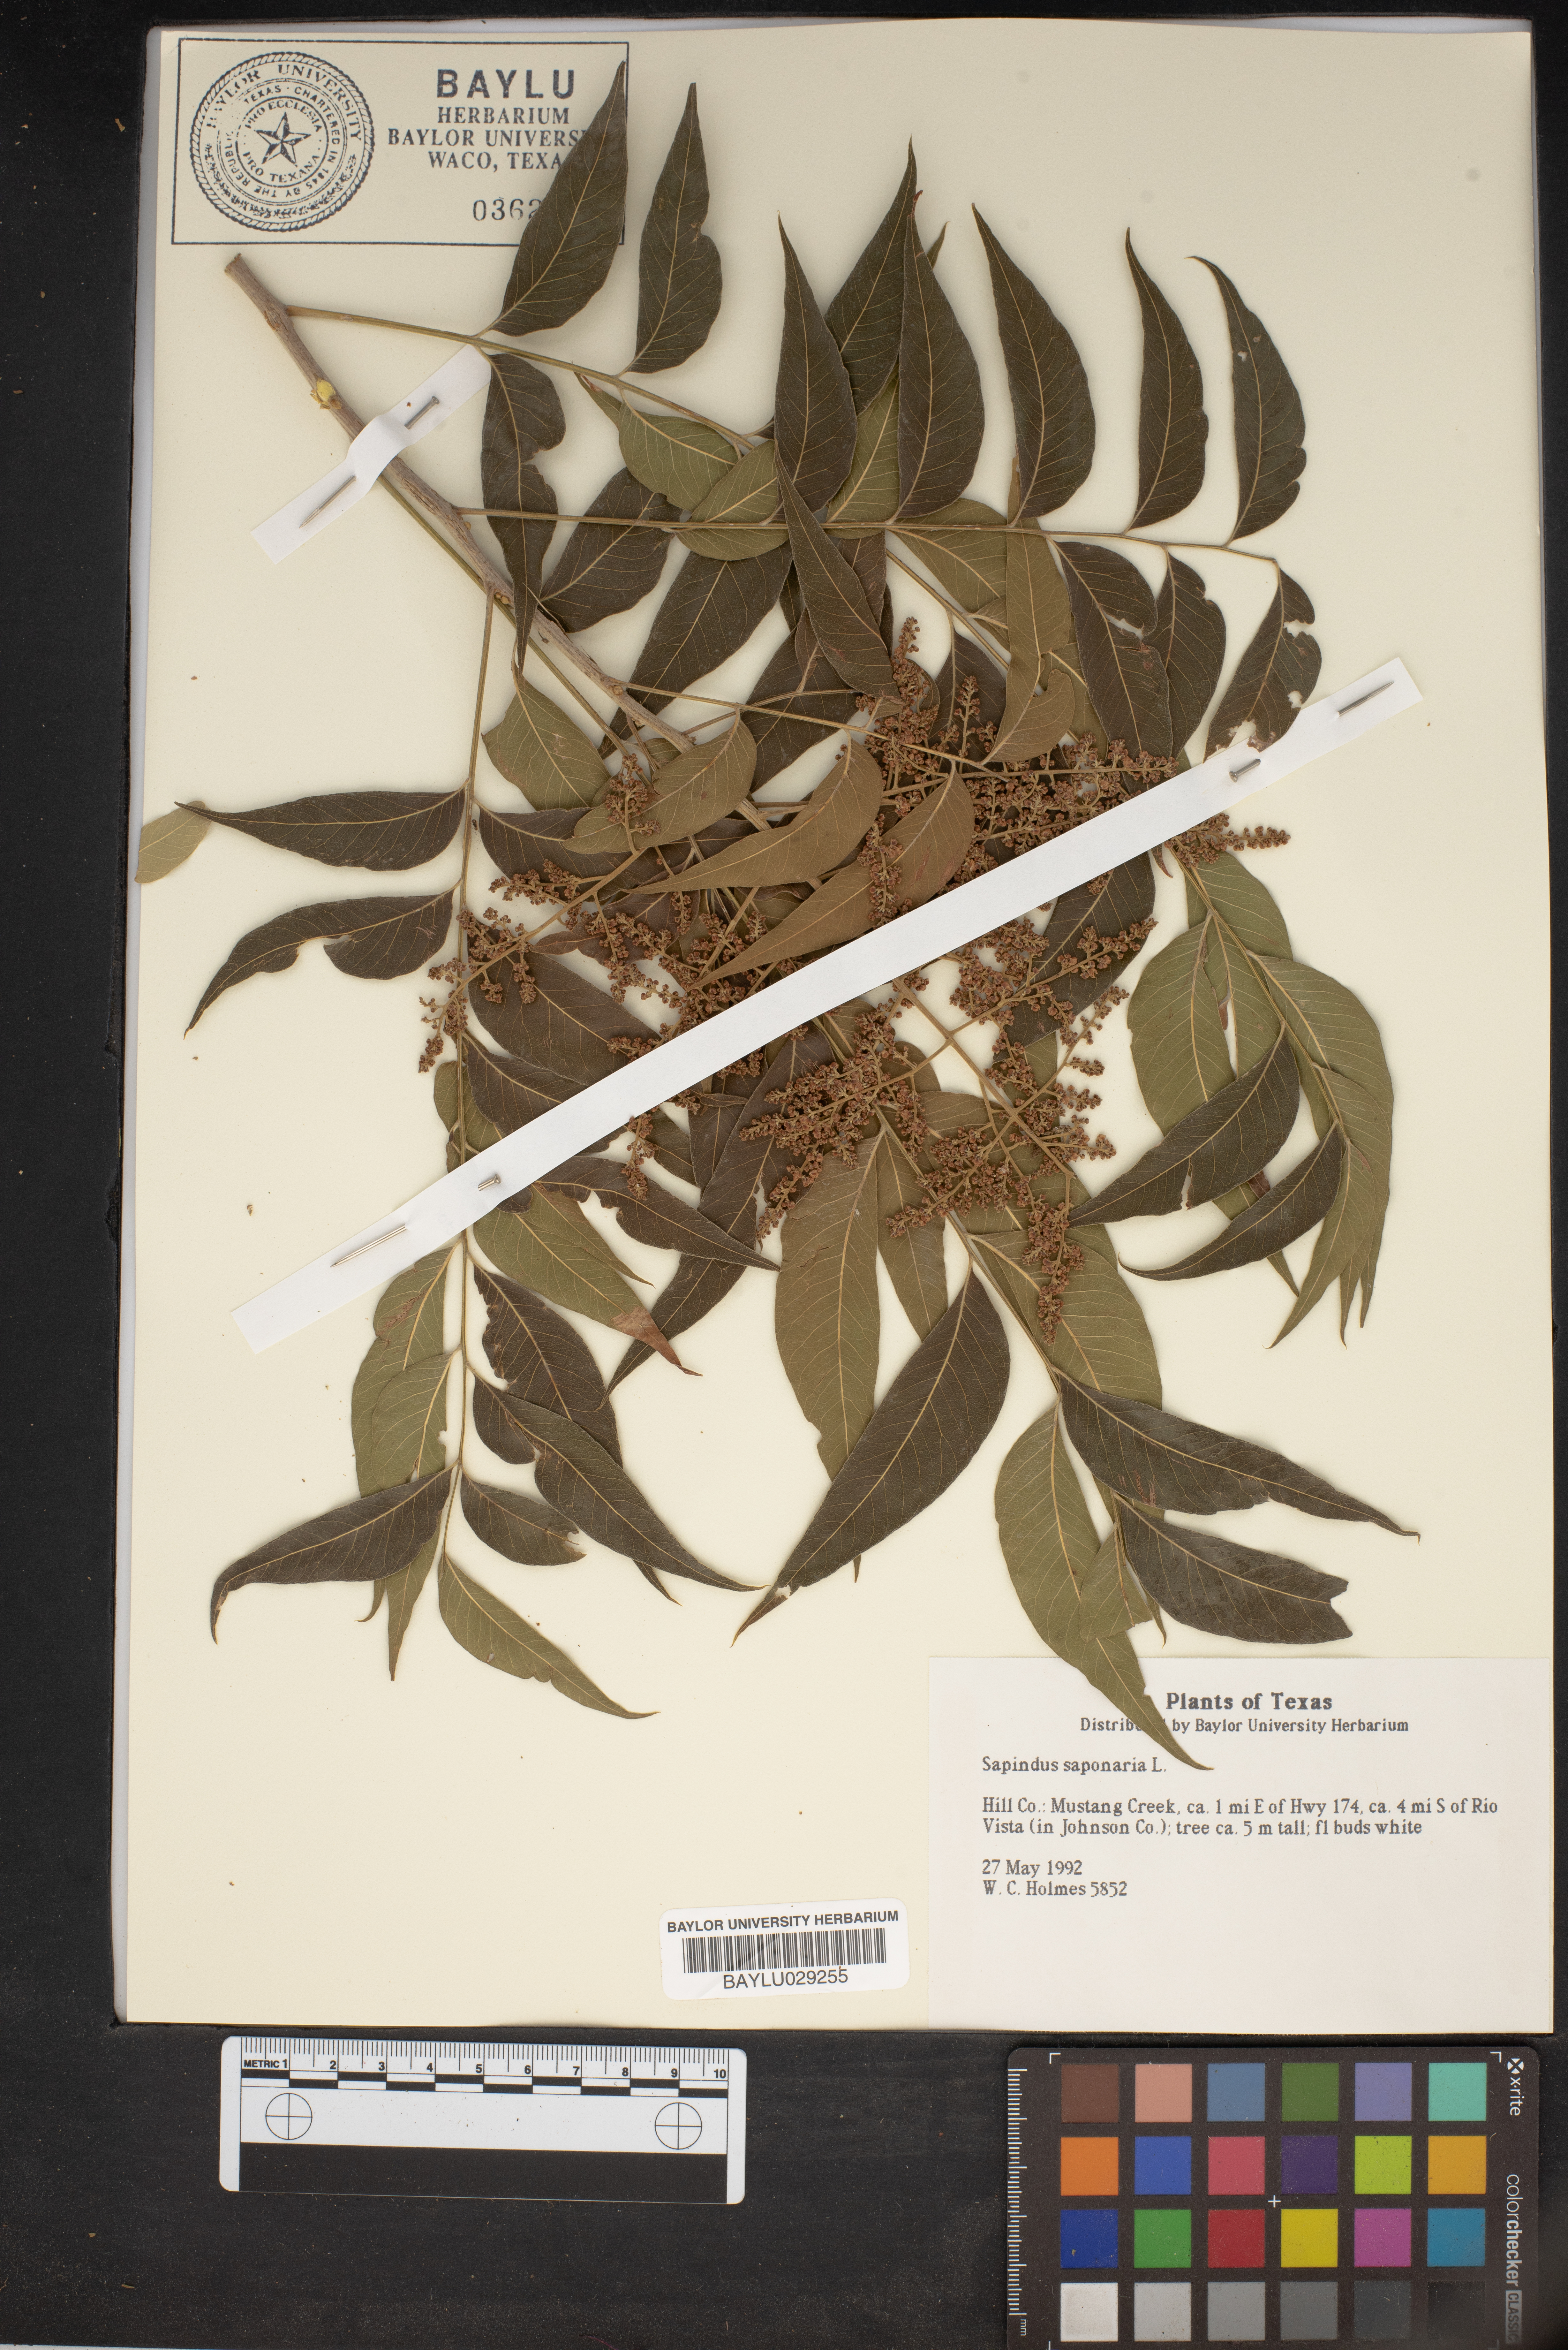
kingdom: Plantae
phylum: Tracheophyta
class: Magnoliopsida
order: Sapindales
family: Sapindaceae
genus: Sapindus
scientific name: Sapindus saponaria
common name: Wingleaf soapberry
